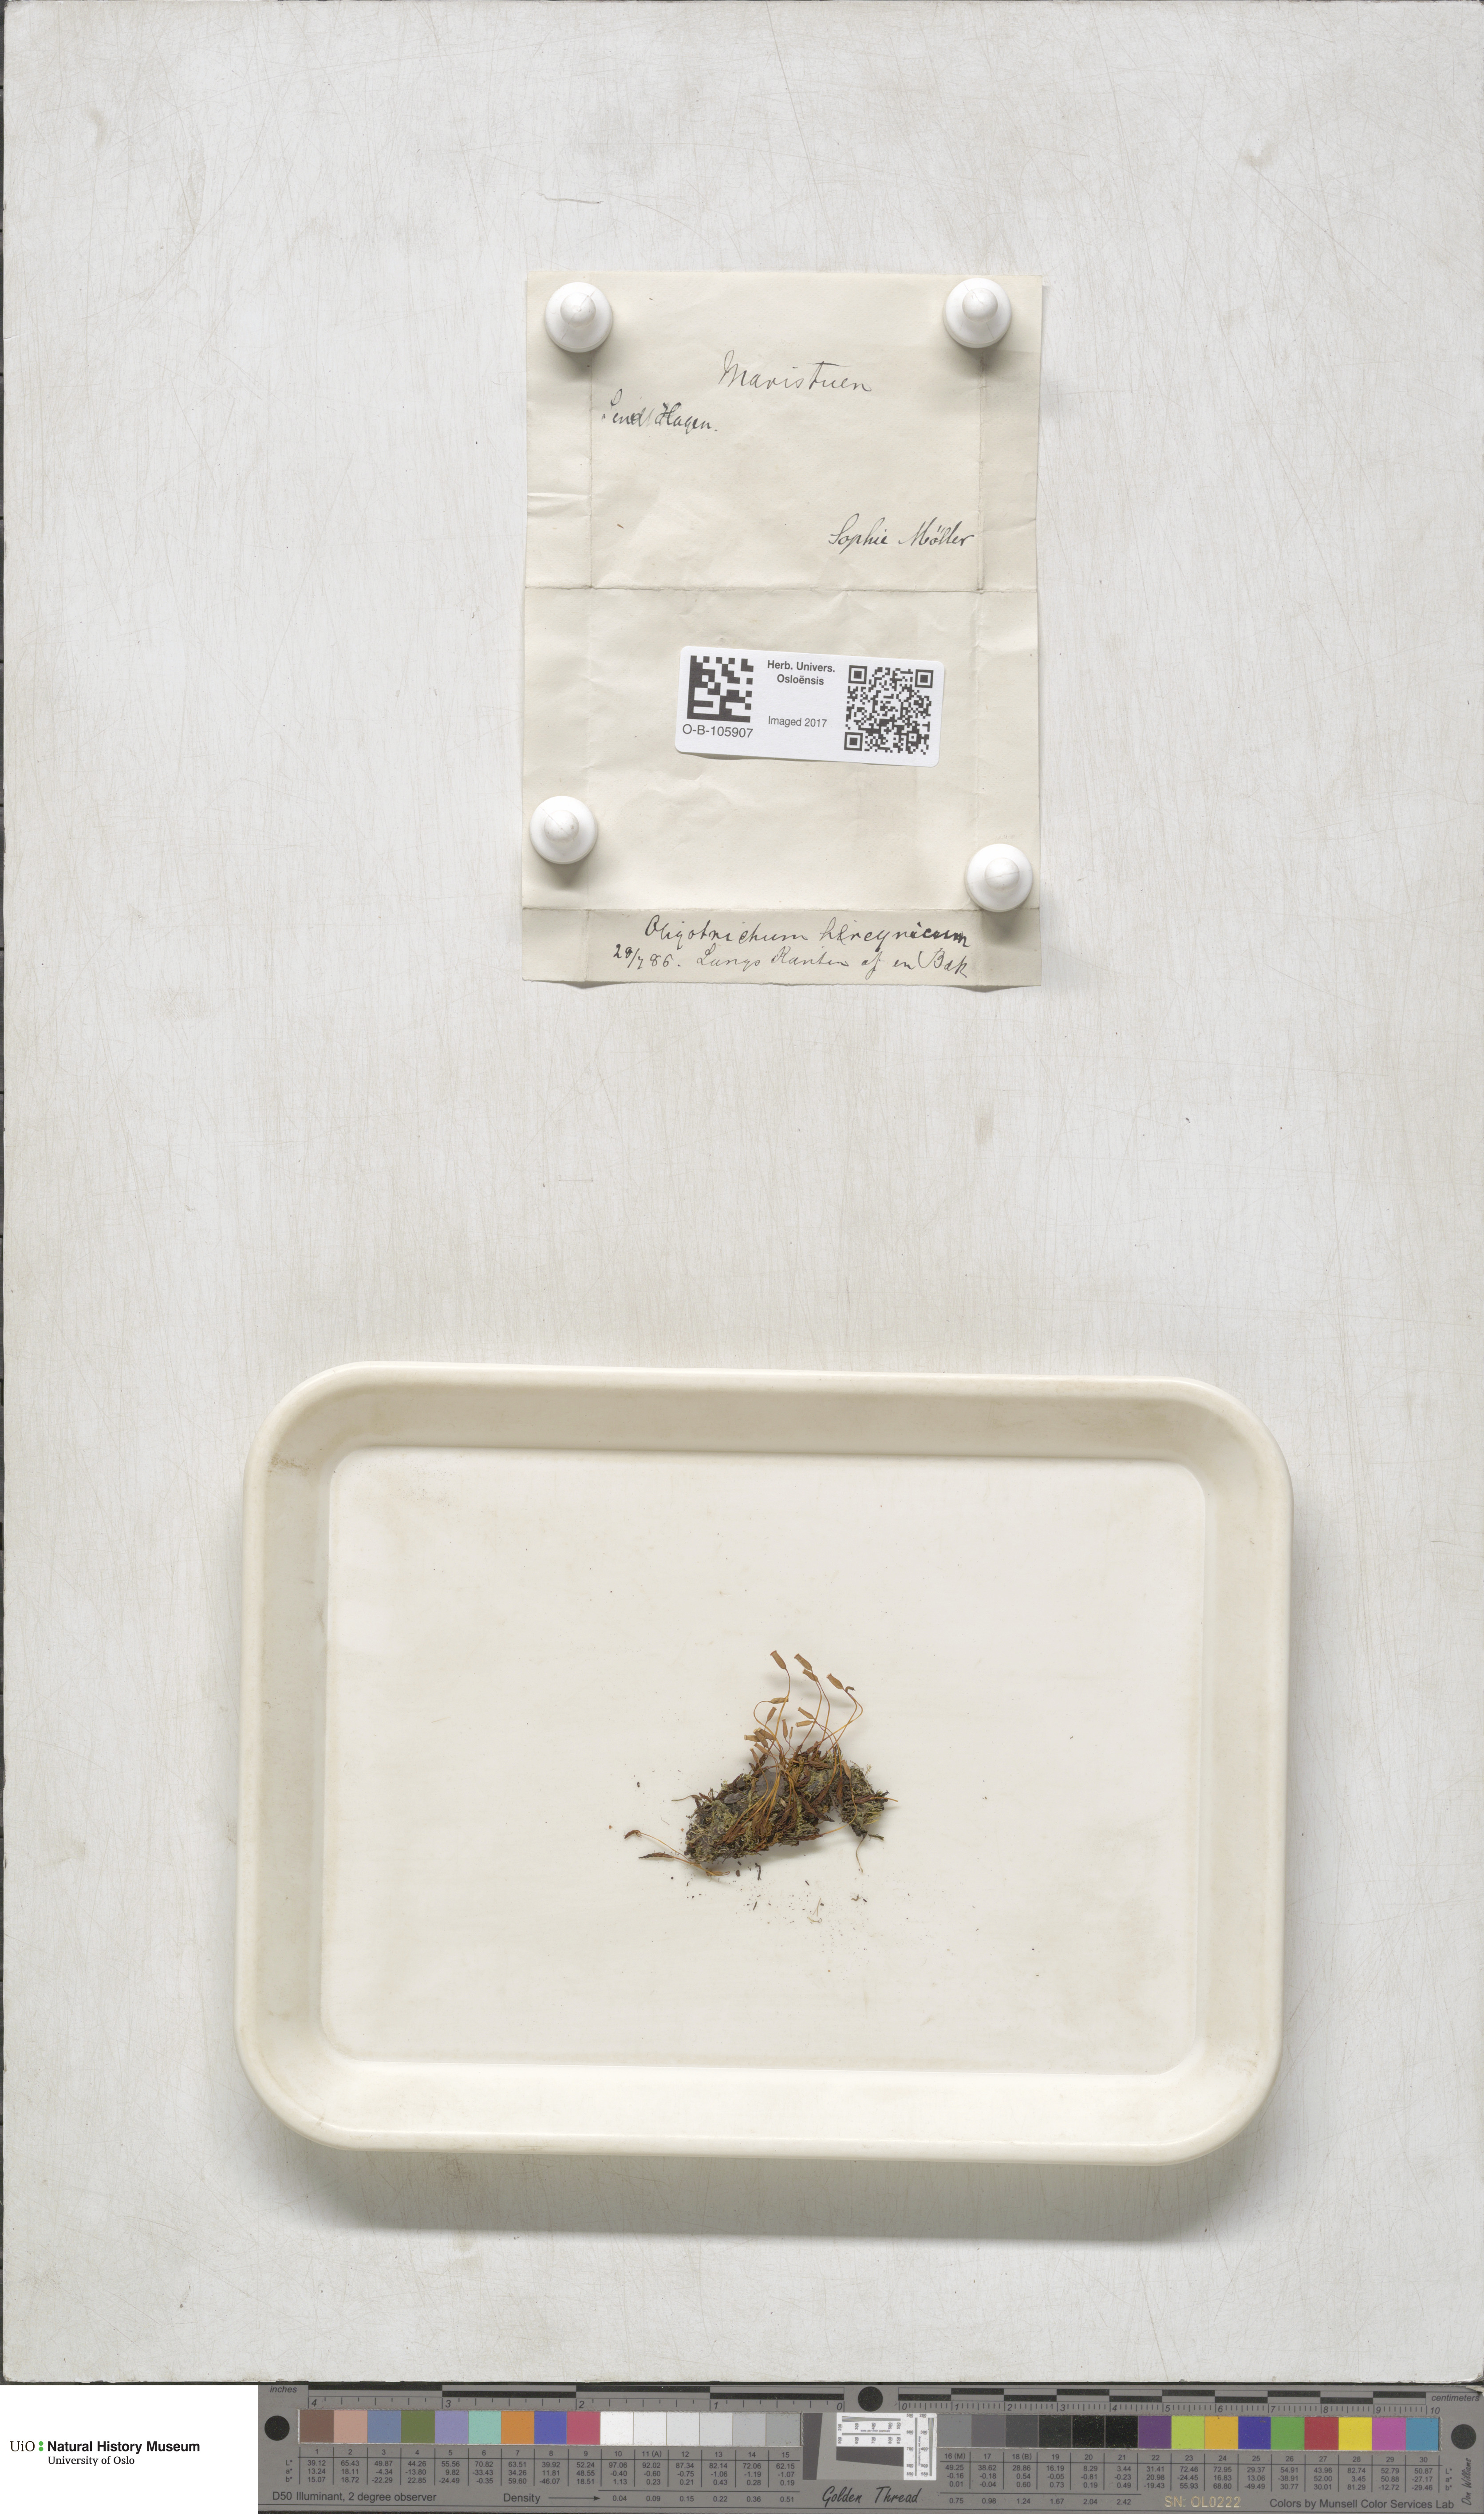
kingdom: Plantae
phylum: Bryophyta
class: Polytrichopsida
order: Polytrichales
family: Polytrichaceae
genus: Oligotrichum
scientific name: Oligotrichum hercynicum
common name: Hercynian hair moss
